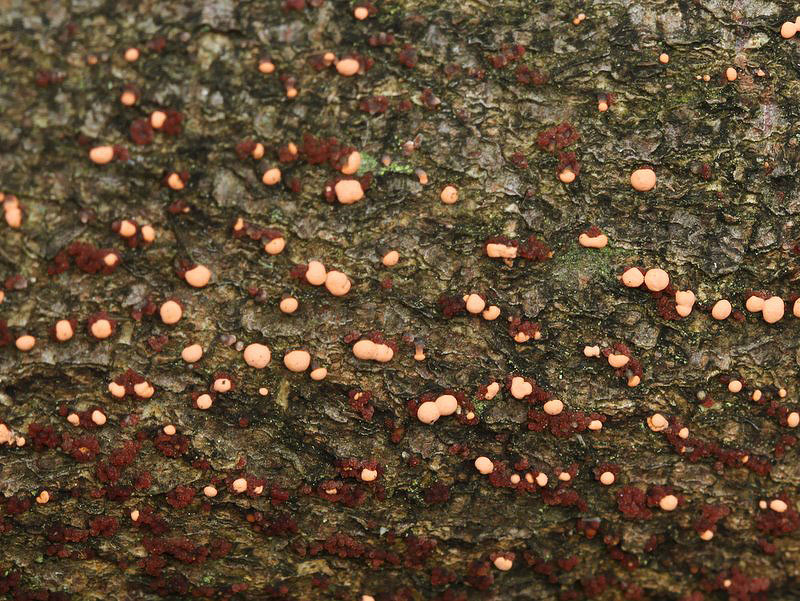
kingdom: Fungi
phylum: Ascomycota
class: Sordariomycetes
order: Hypocreales
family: Nectriaceae
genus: Nectria
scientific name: Nectria cinnabarina
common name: almindelig cinnobersvamp
